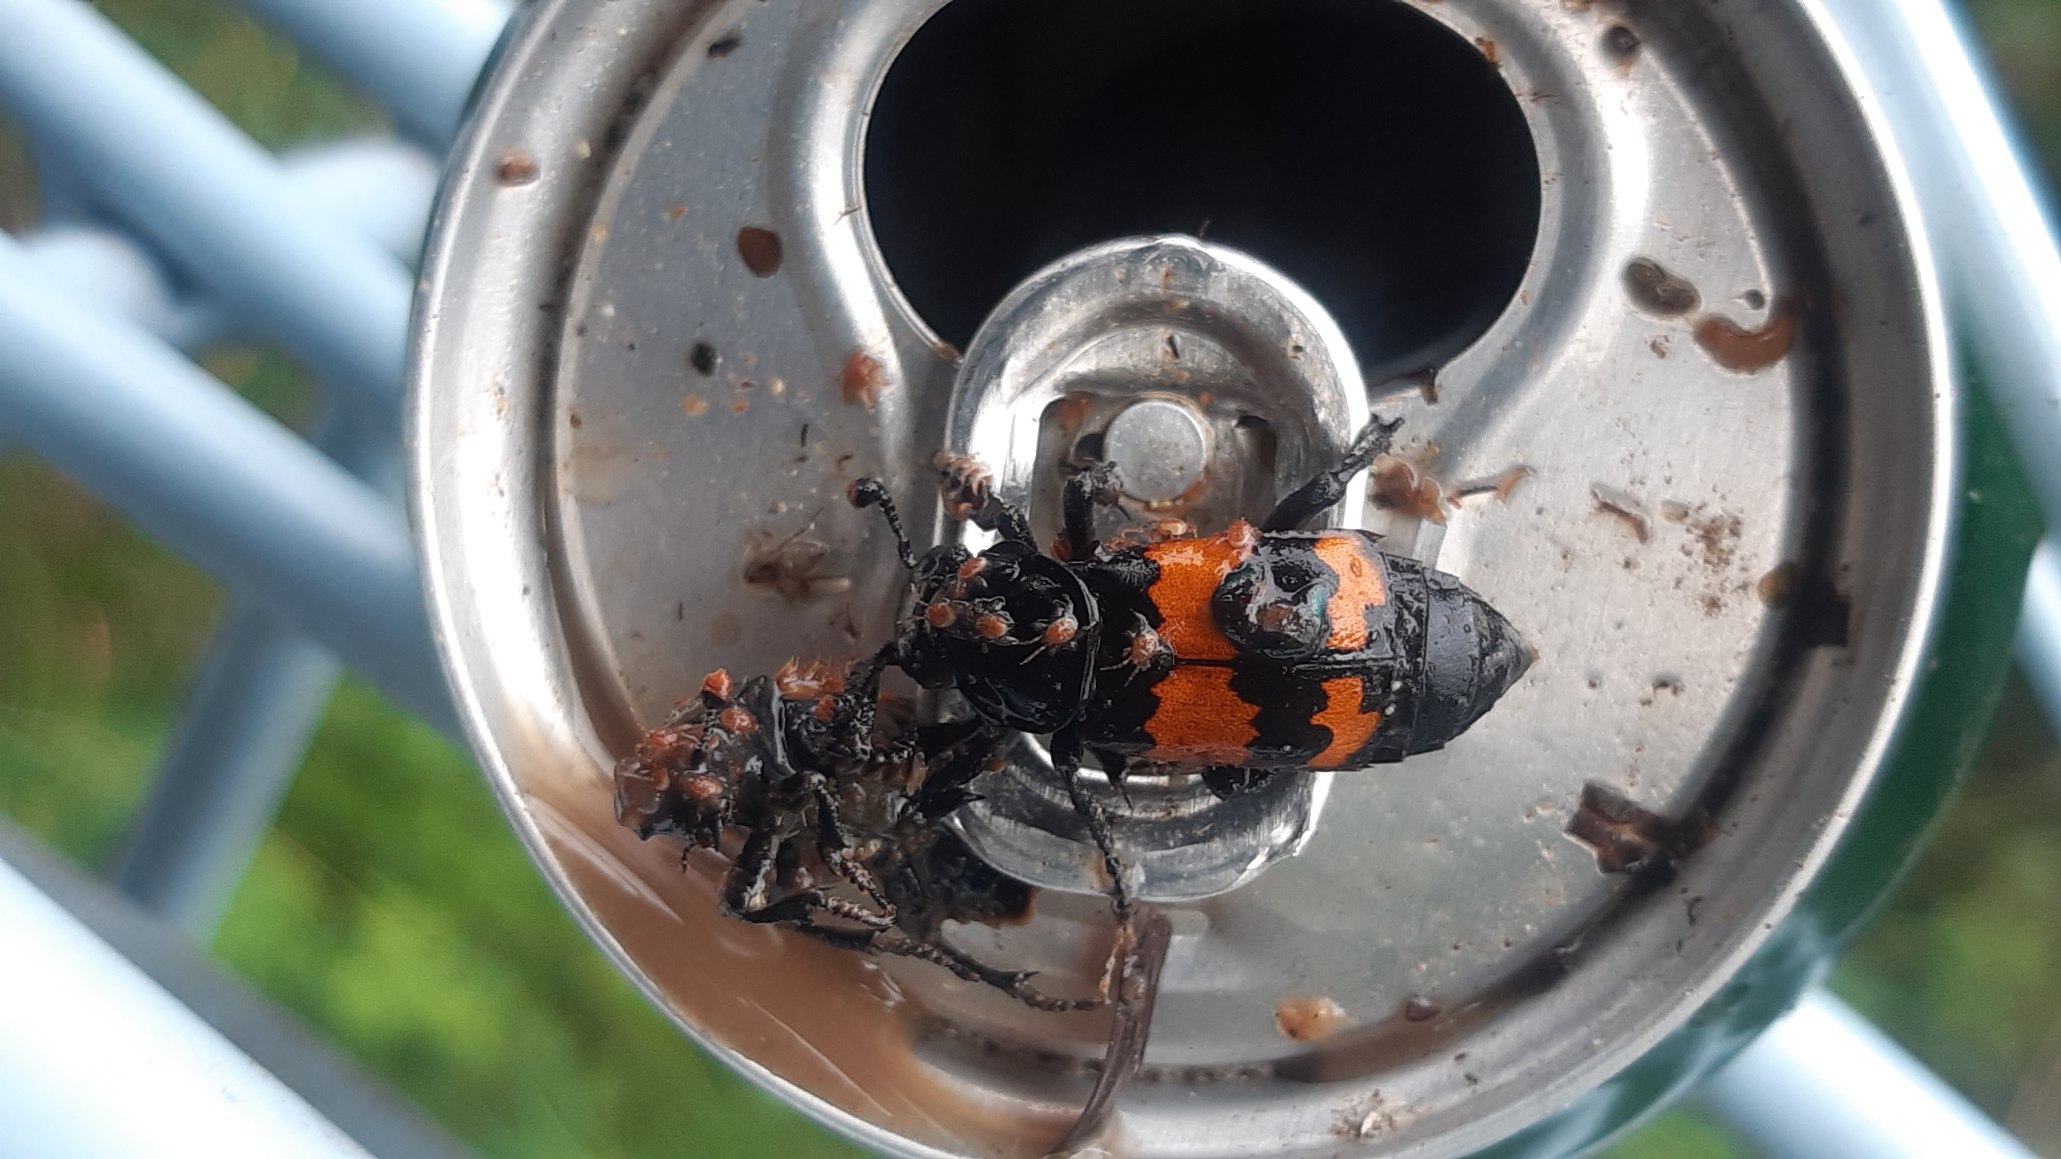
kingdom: Animalia
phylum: Arthropoda
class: Insecta
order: Coleoptera
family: Staphylinidae
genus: Nicrophorus
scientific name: Nicrophorus investigator
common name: Skovådselgraver
